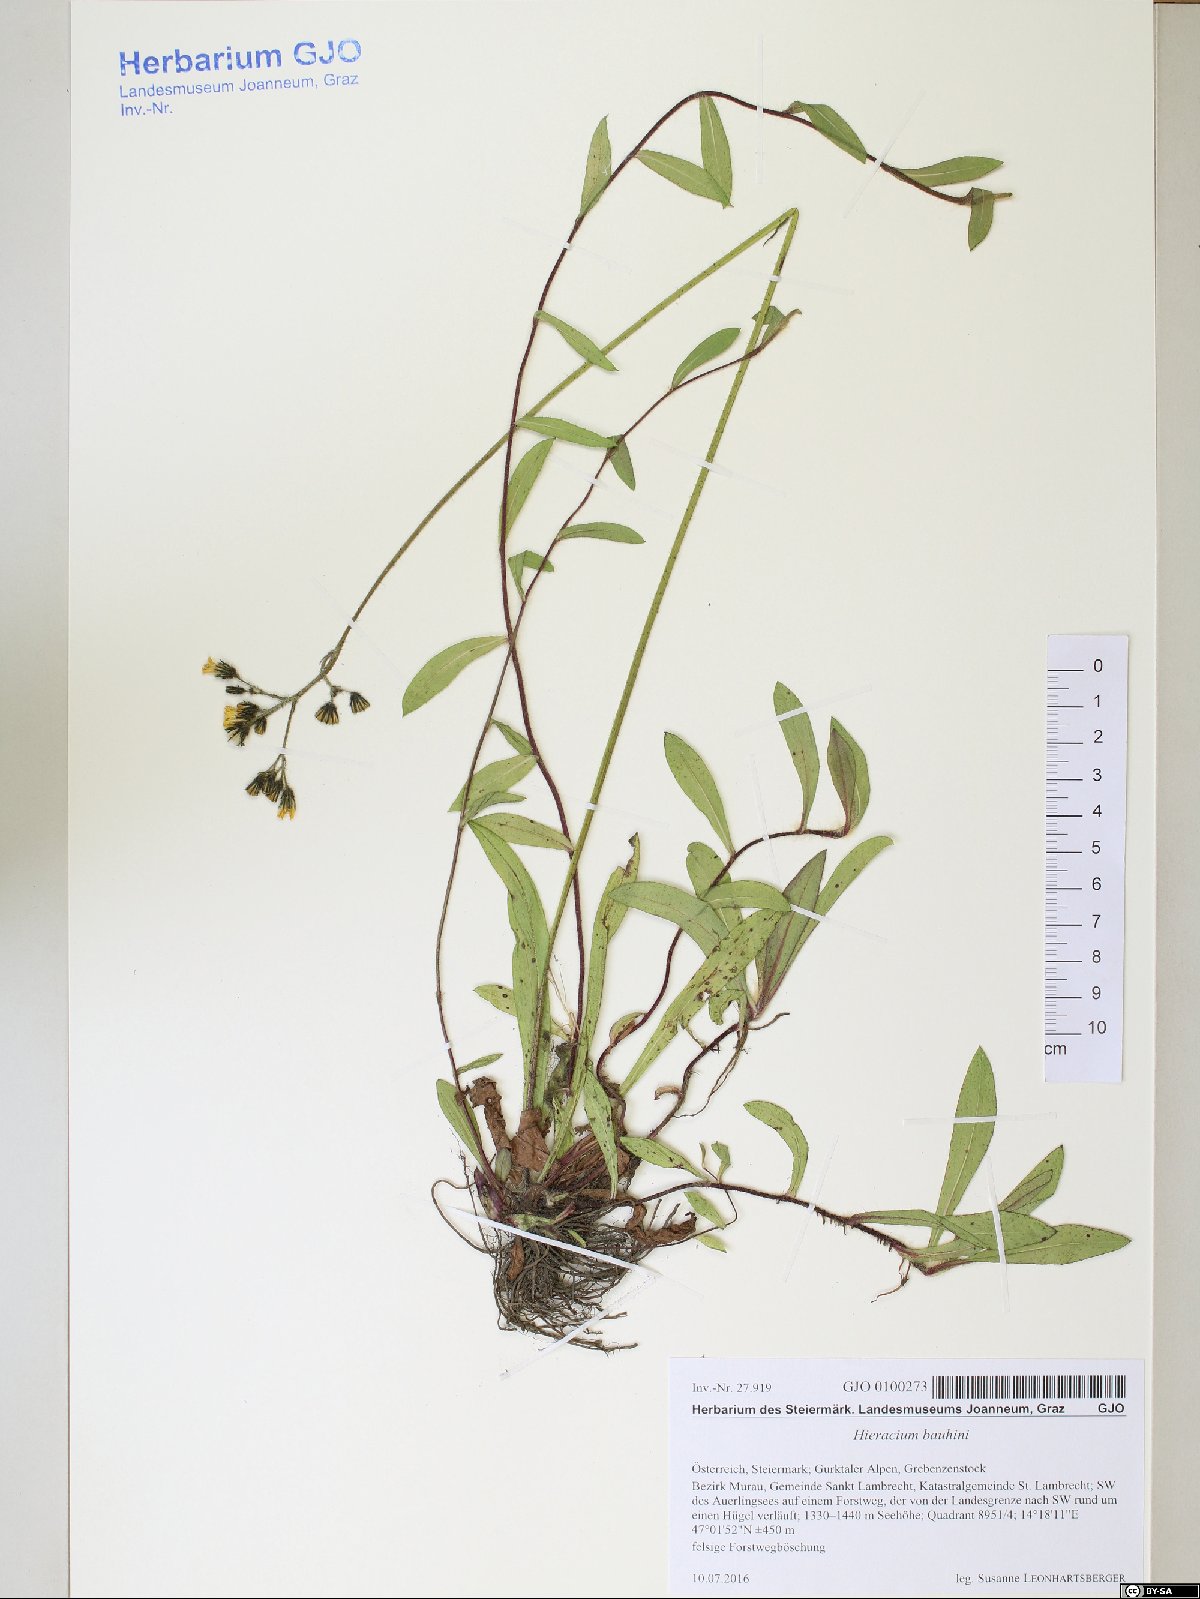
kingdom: Plantae
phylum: Tracheophyta
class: Magnoliopsida
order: Asterales
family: Asteraceae
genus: Pilosella
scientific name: Pilosella bauhini
